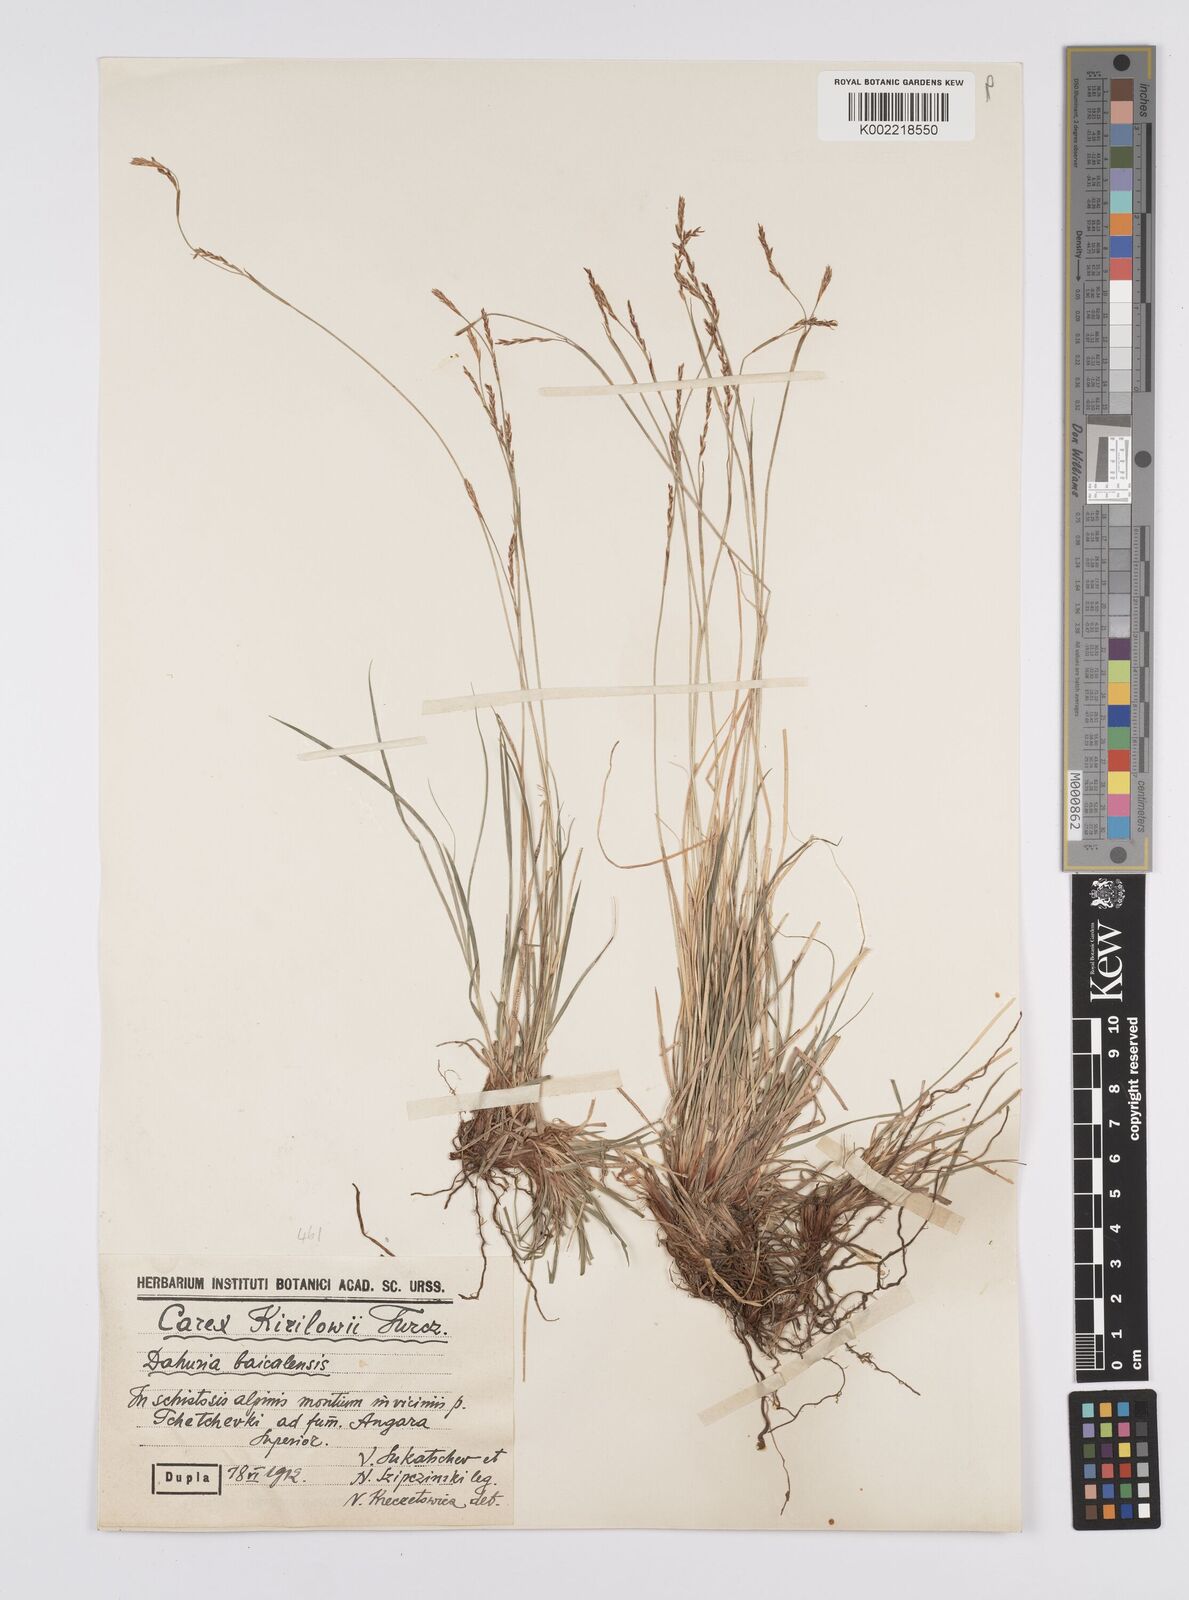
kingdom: Plantae
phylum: Tracheophyta
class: Liliopsida
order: Poales
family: Cyperaceae
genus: Carex
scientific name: Carex pediformis
